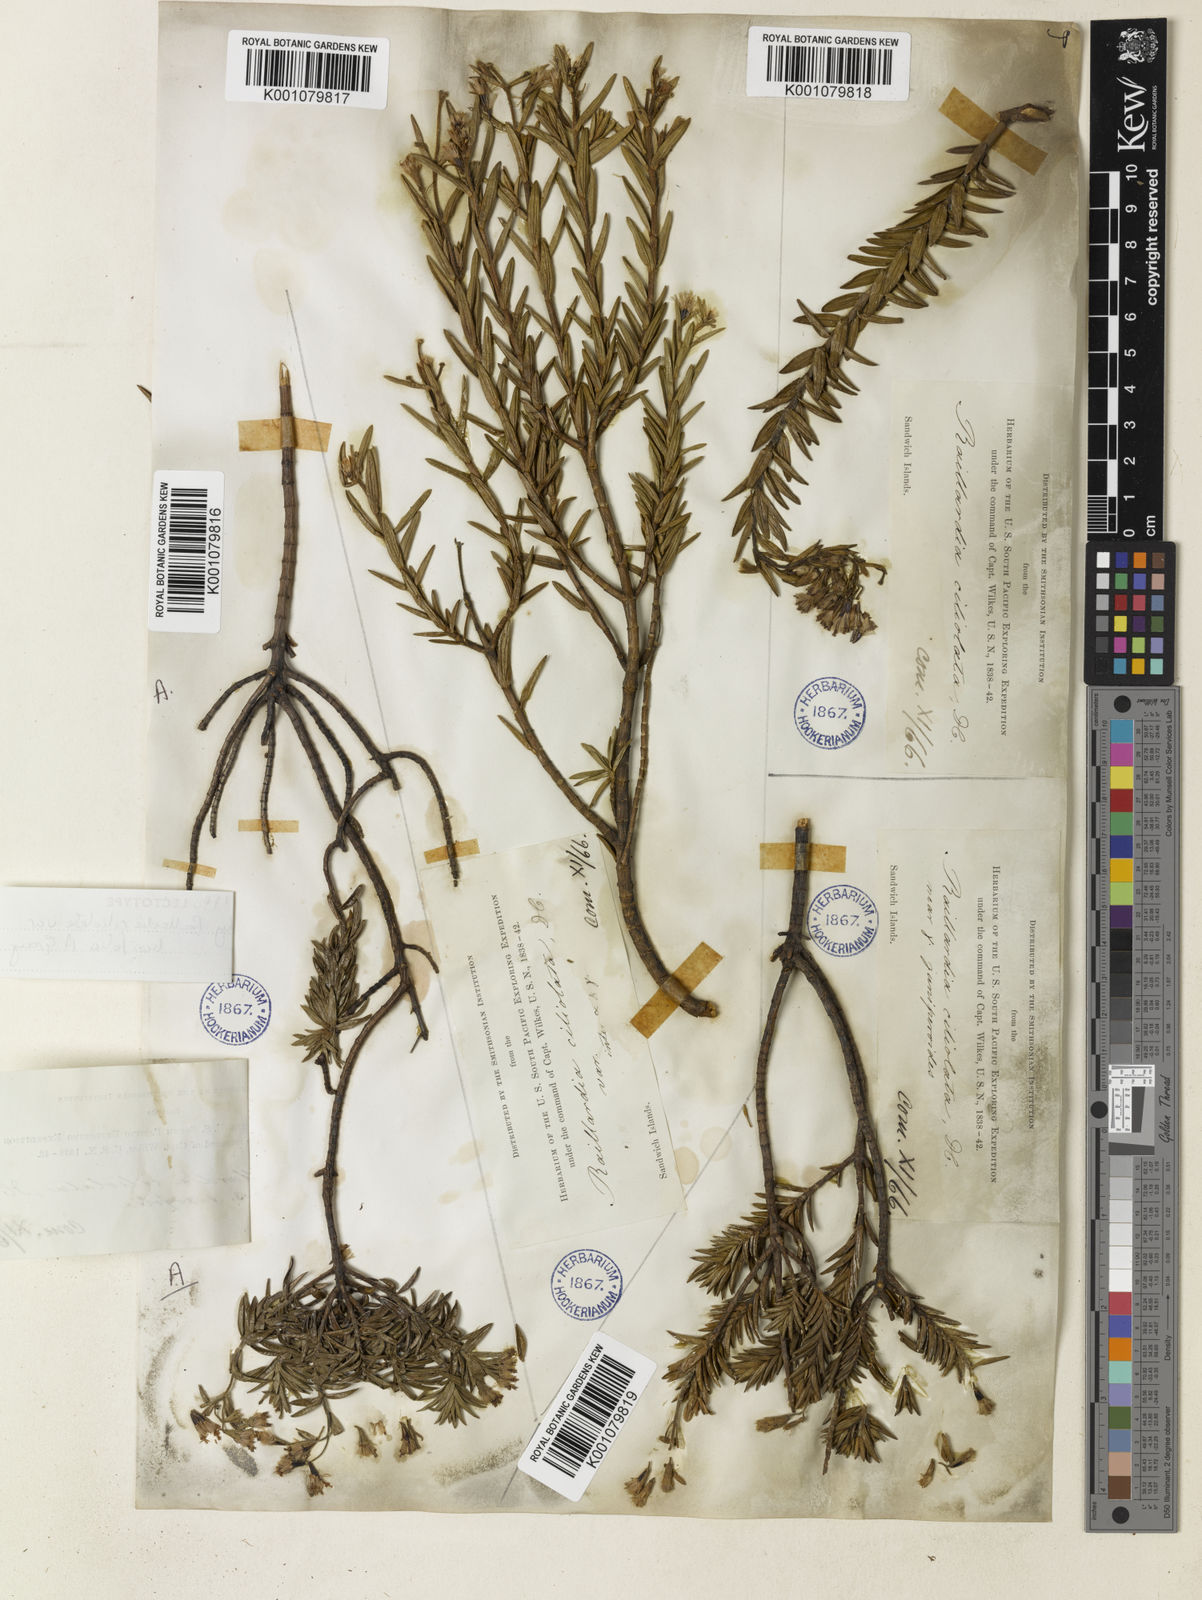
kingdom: Plantae
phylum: Tracheophyta
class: Magnoliopsida
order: Asterales
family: Asteraceae
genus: Dubautia
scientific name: Dubautia ciliolata
